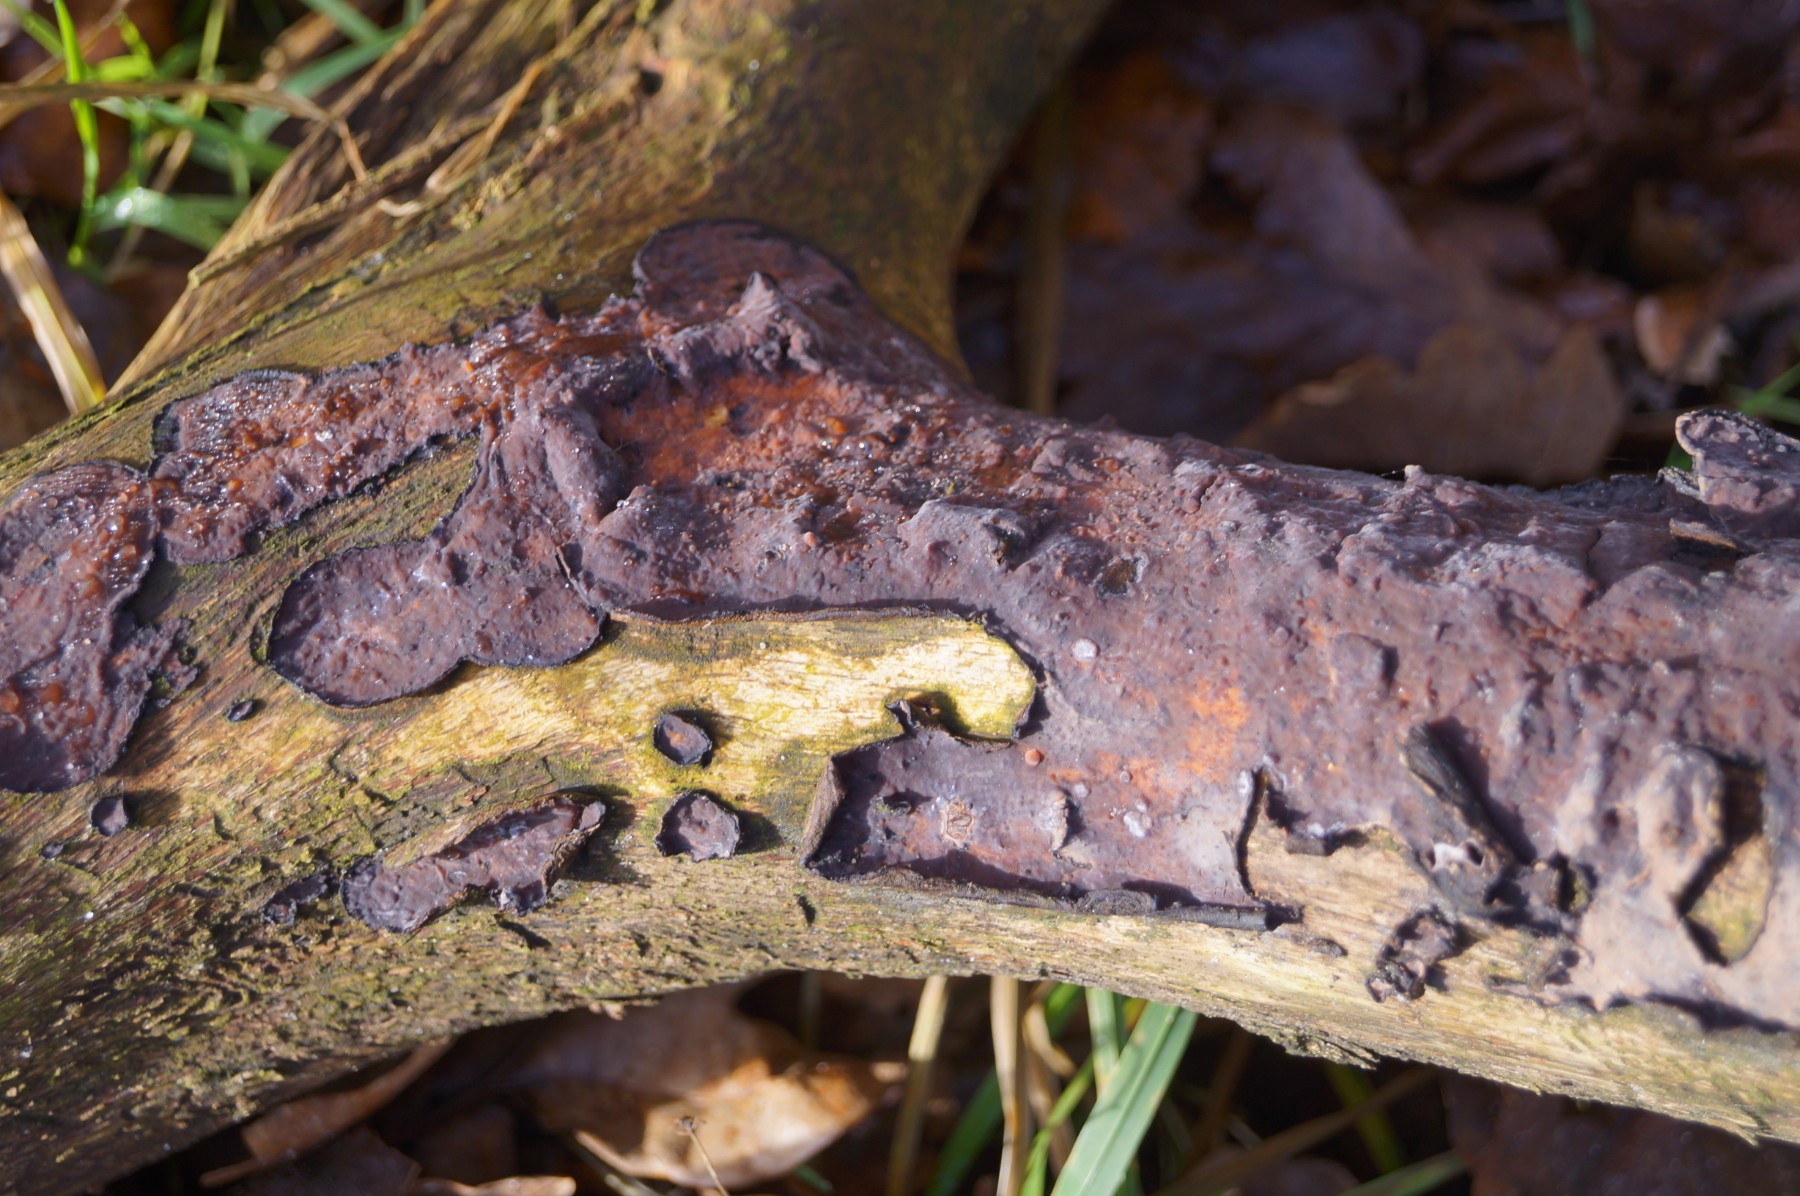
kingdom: Fungi
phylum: Basidiomycota
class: Agaricomycetes
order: Russulales
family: Peniophoraceae
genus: Peniophora
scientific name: Peniophora quercina
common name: ege-voksskind
